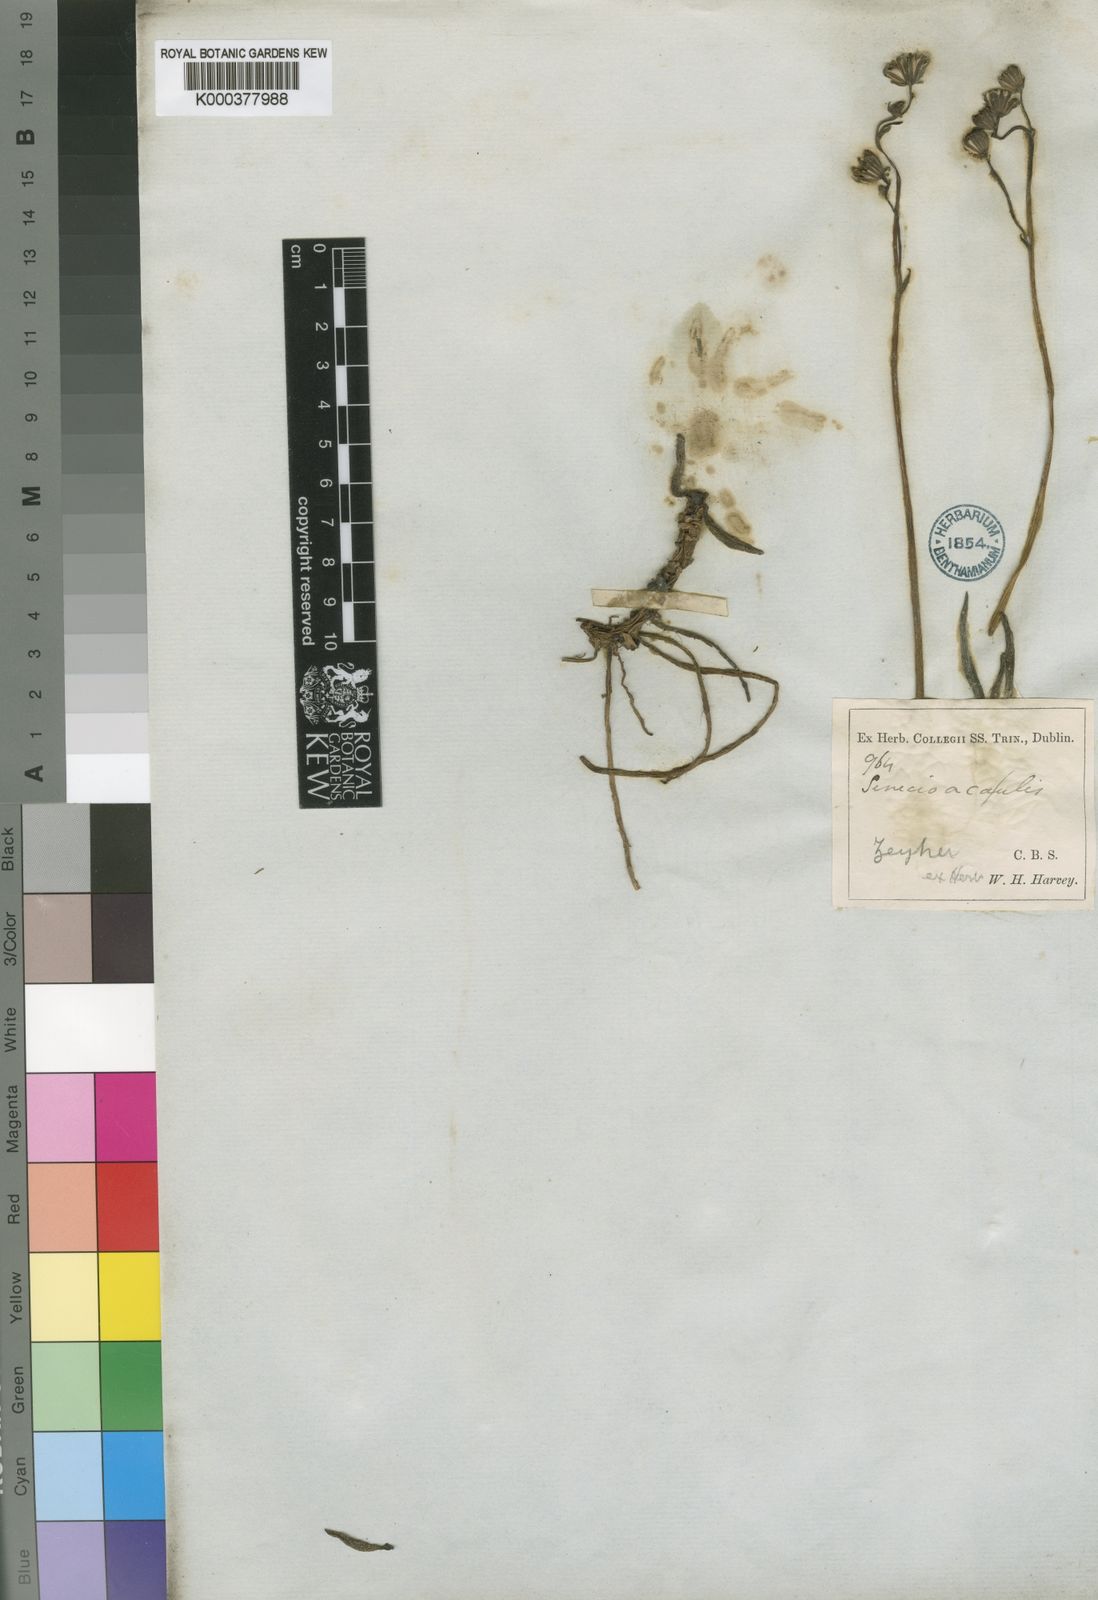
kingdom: Plantae
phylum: Tracheophyta
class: Magnoliopsida
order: Asterales
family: Asteraceae
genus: Curio
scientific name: Curio crassulifolius
